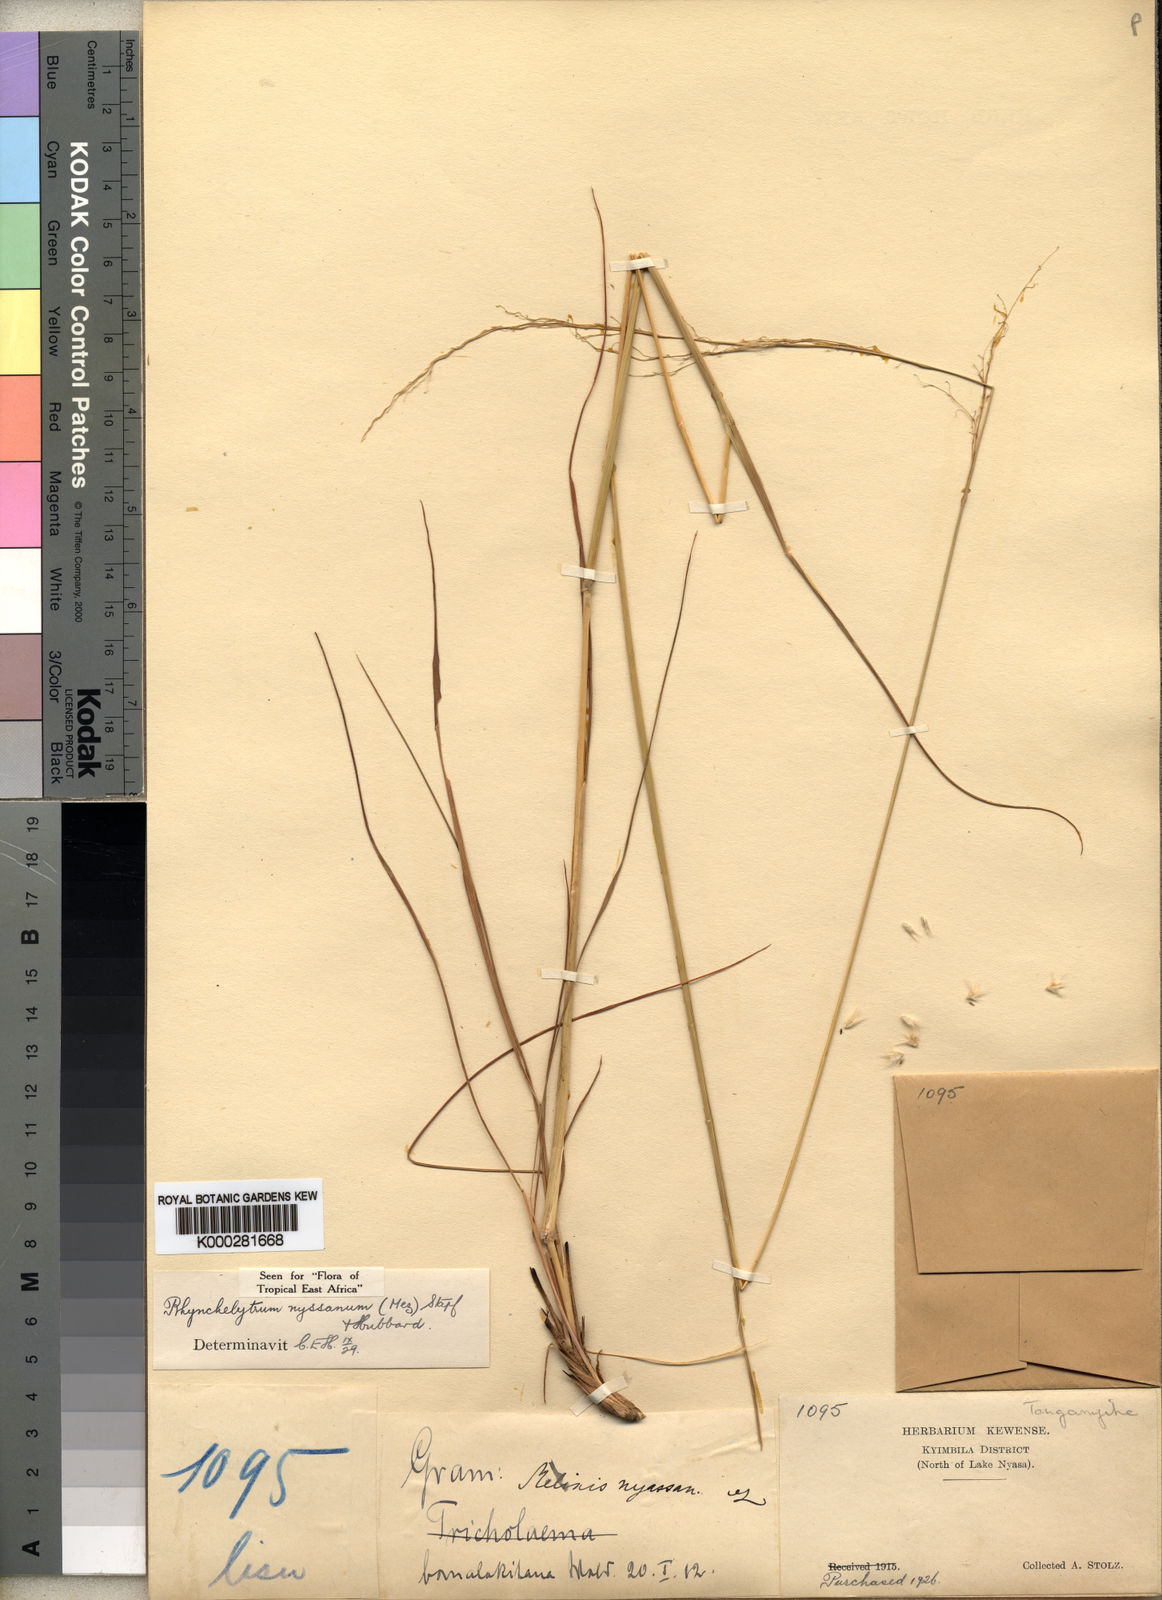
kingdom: Plantae
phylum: Tracheophyta
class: Liliopsida
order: Poales
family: Poaceae
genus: Melinis
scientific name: Melinis nerviglumis
